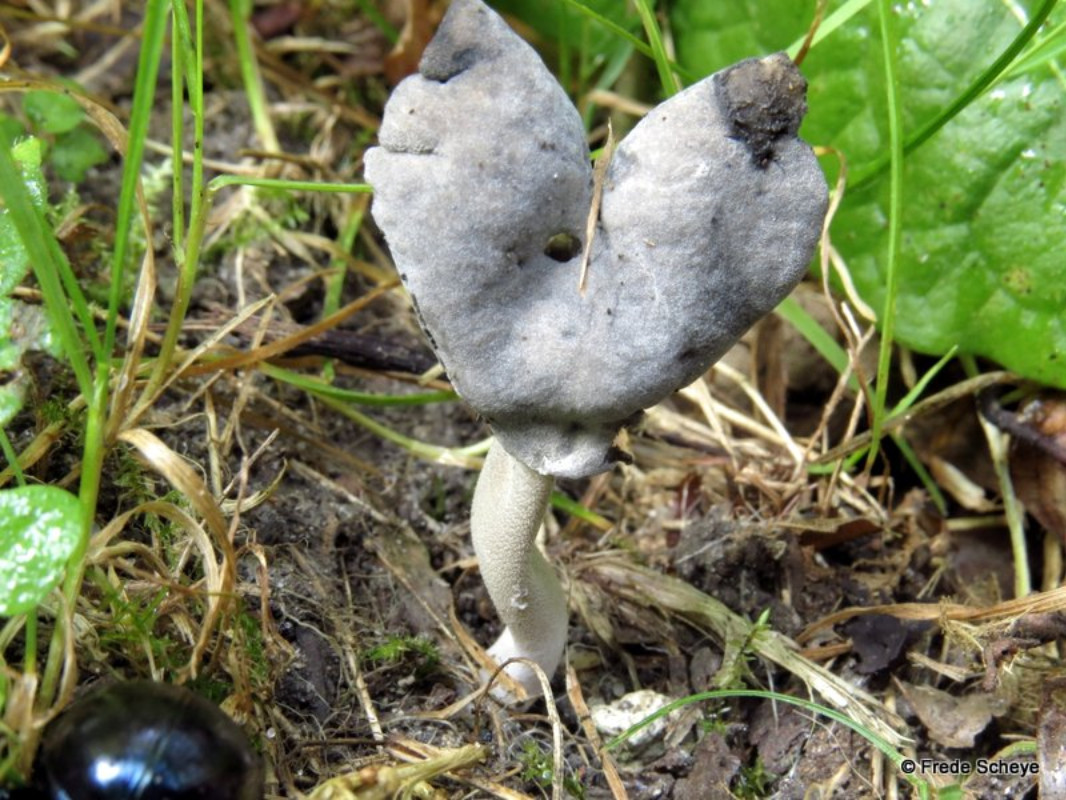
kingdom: Fungi
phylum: Ascomycota
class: Pezizomycetes
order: Pezizales
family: Helvellaceae
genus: Helvella
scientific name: Helvella sublicia
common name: saddel-foldhat
